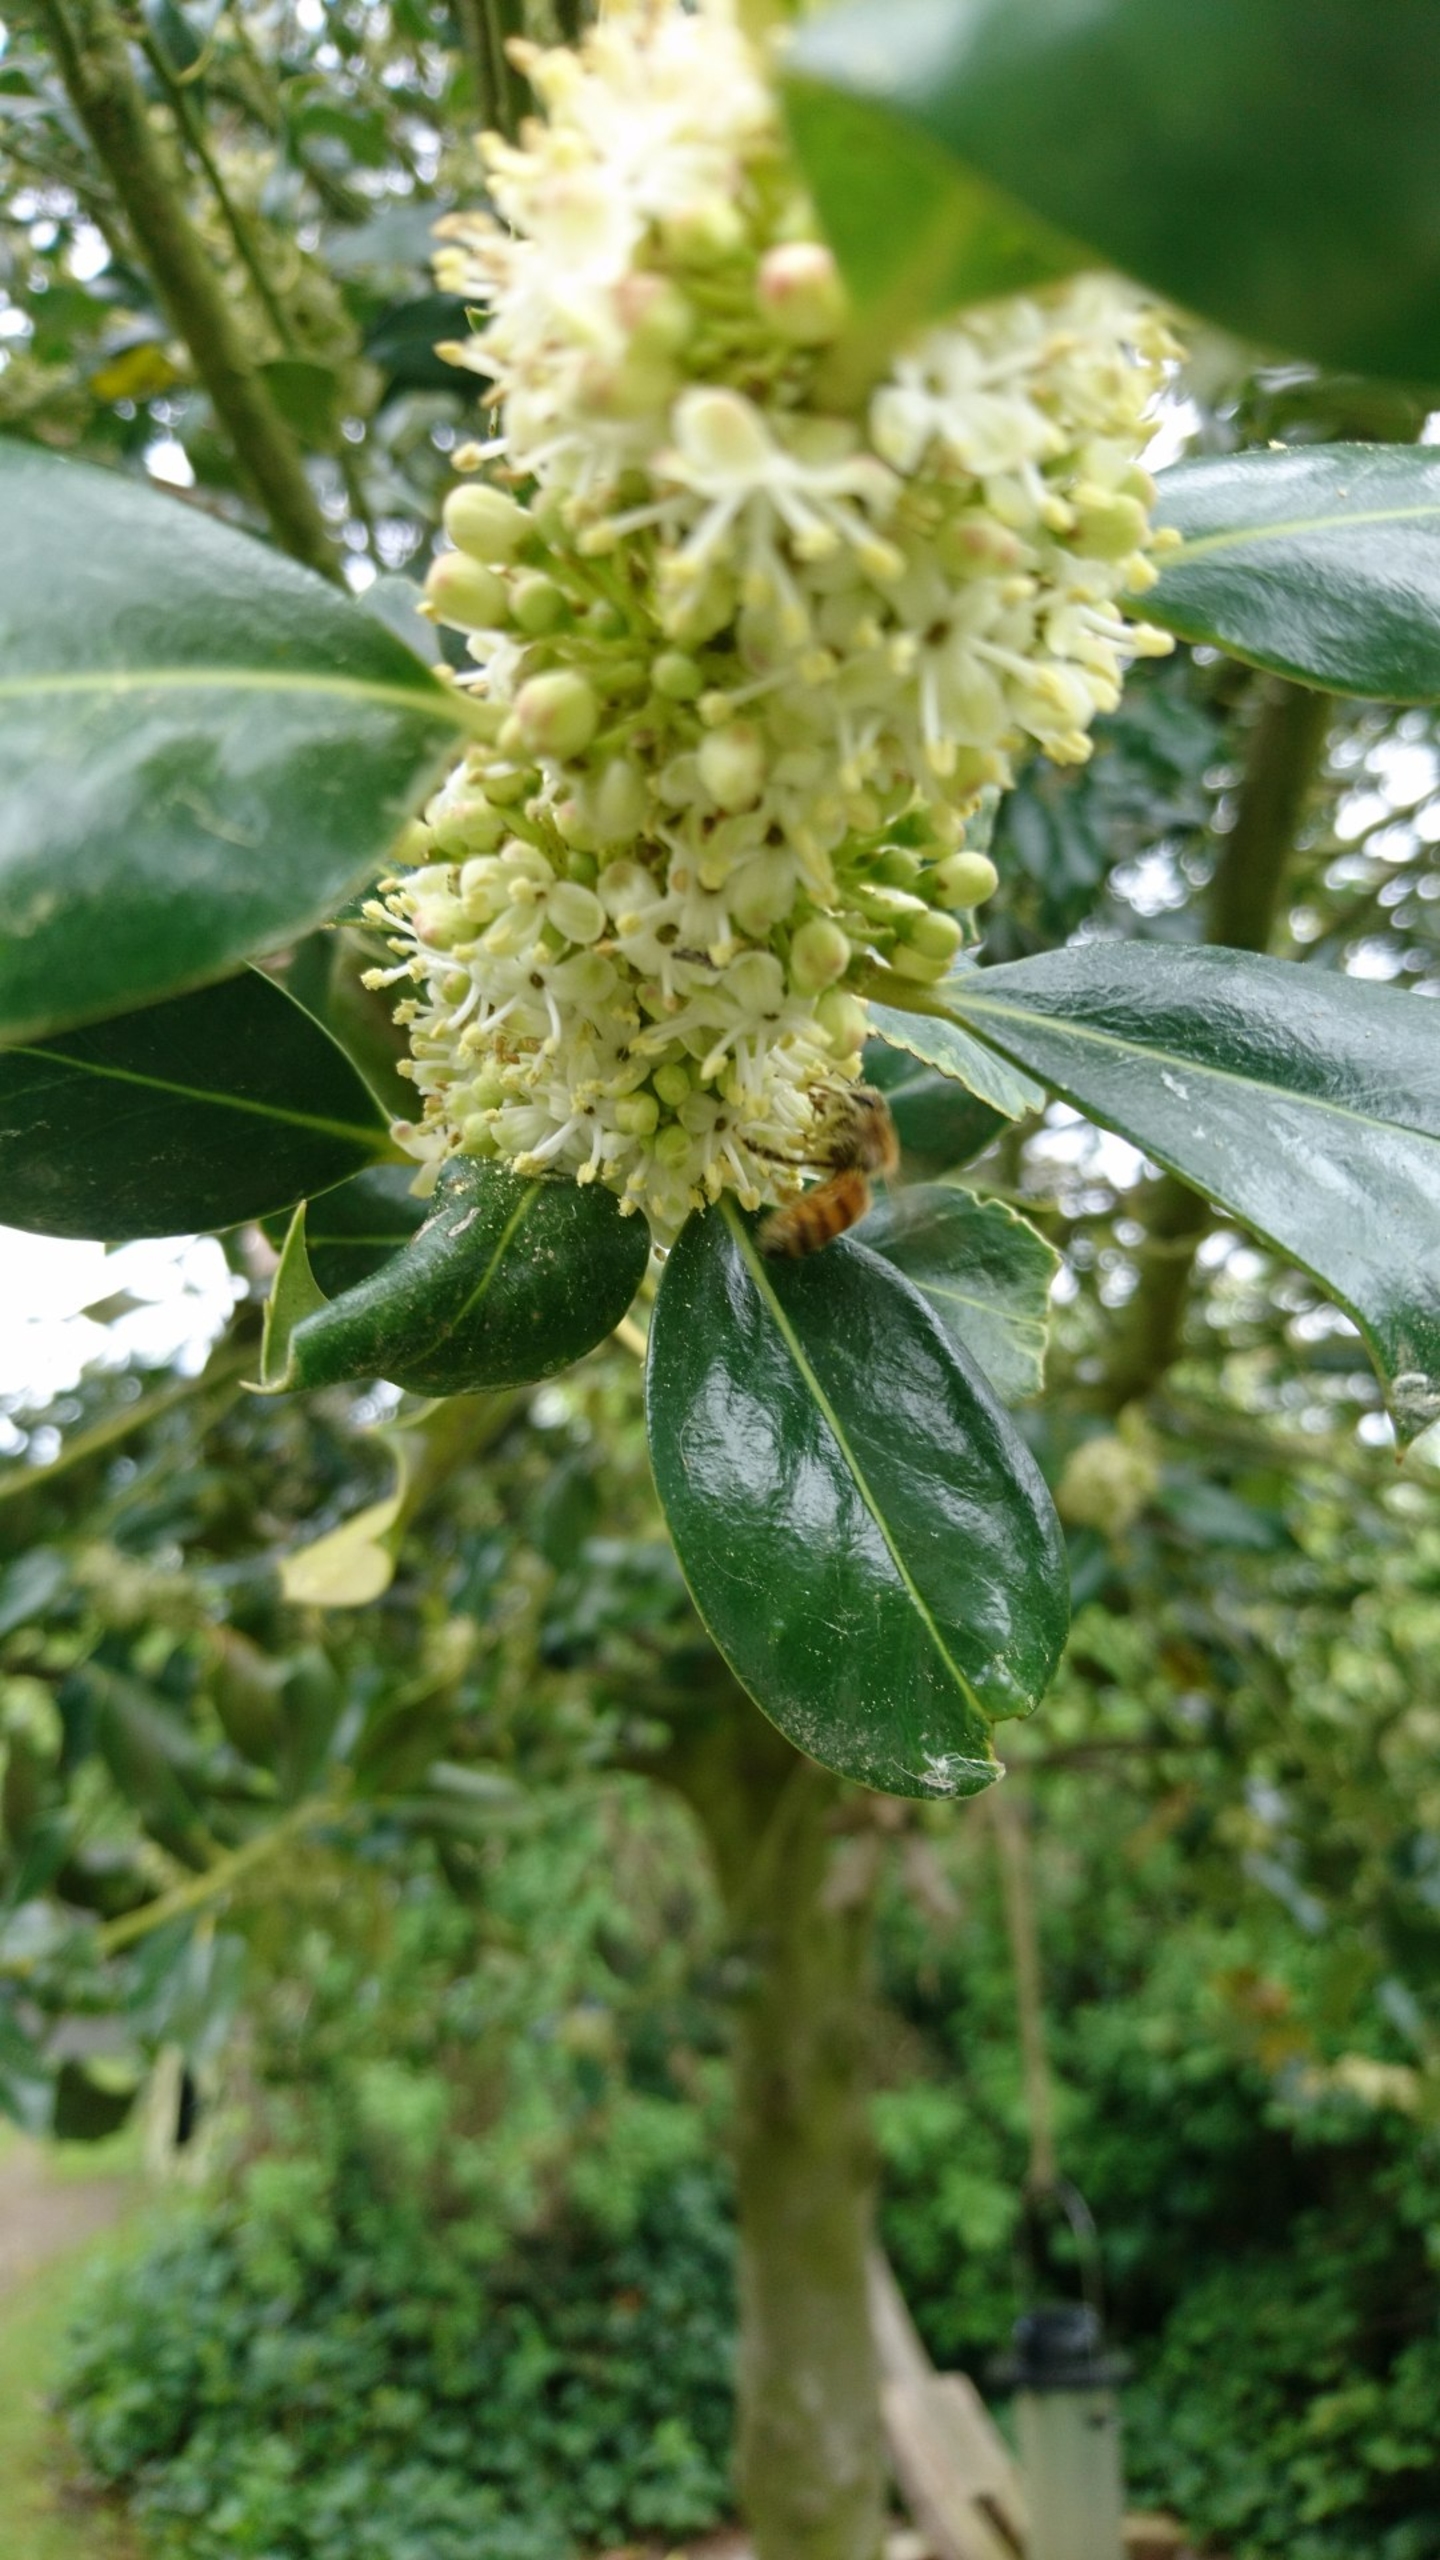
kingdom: Animalia
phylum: Arthropoda
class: Insecta
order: Hymenoptera
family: Apidae
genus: Apis
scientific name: Apis mellifera
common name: Honningbi
